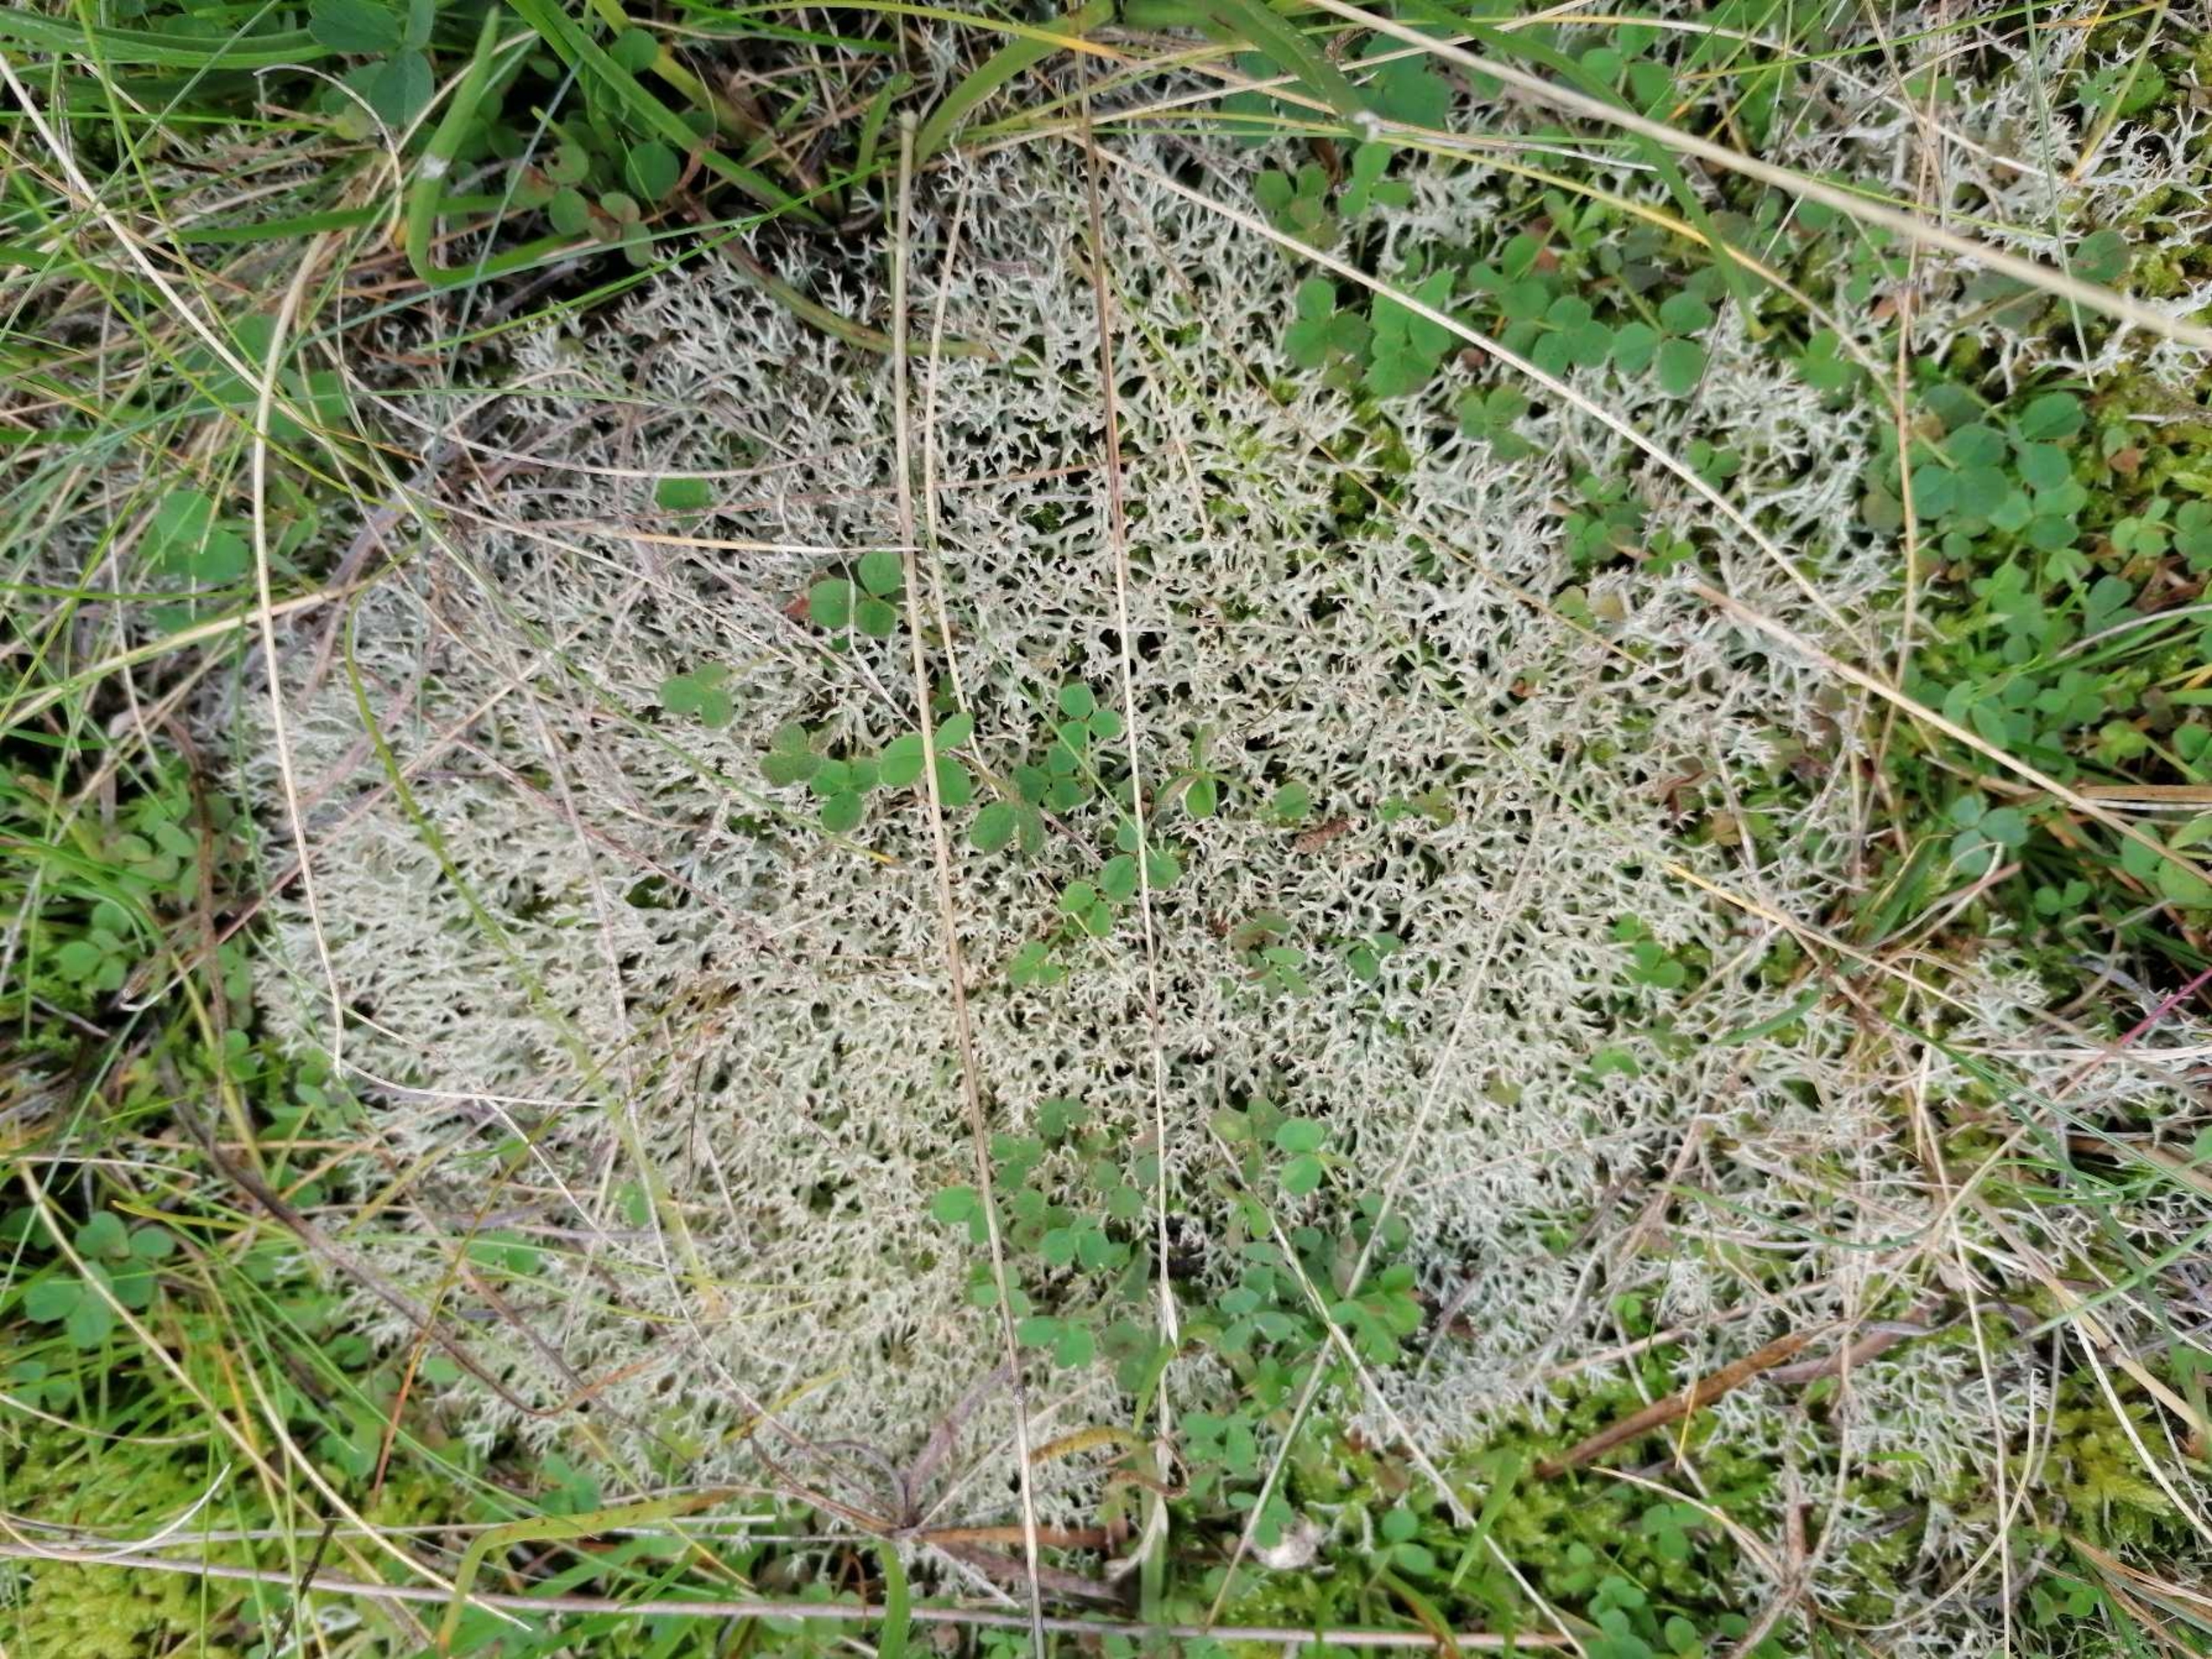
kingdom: Fungi
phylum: Ascomycota
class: Lecanoromycetes
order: Lecanorales
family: Cladoniaceae
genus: Cladonia
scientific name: Cladonia
